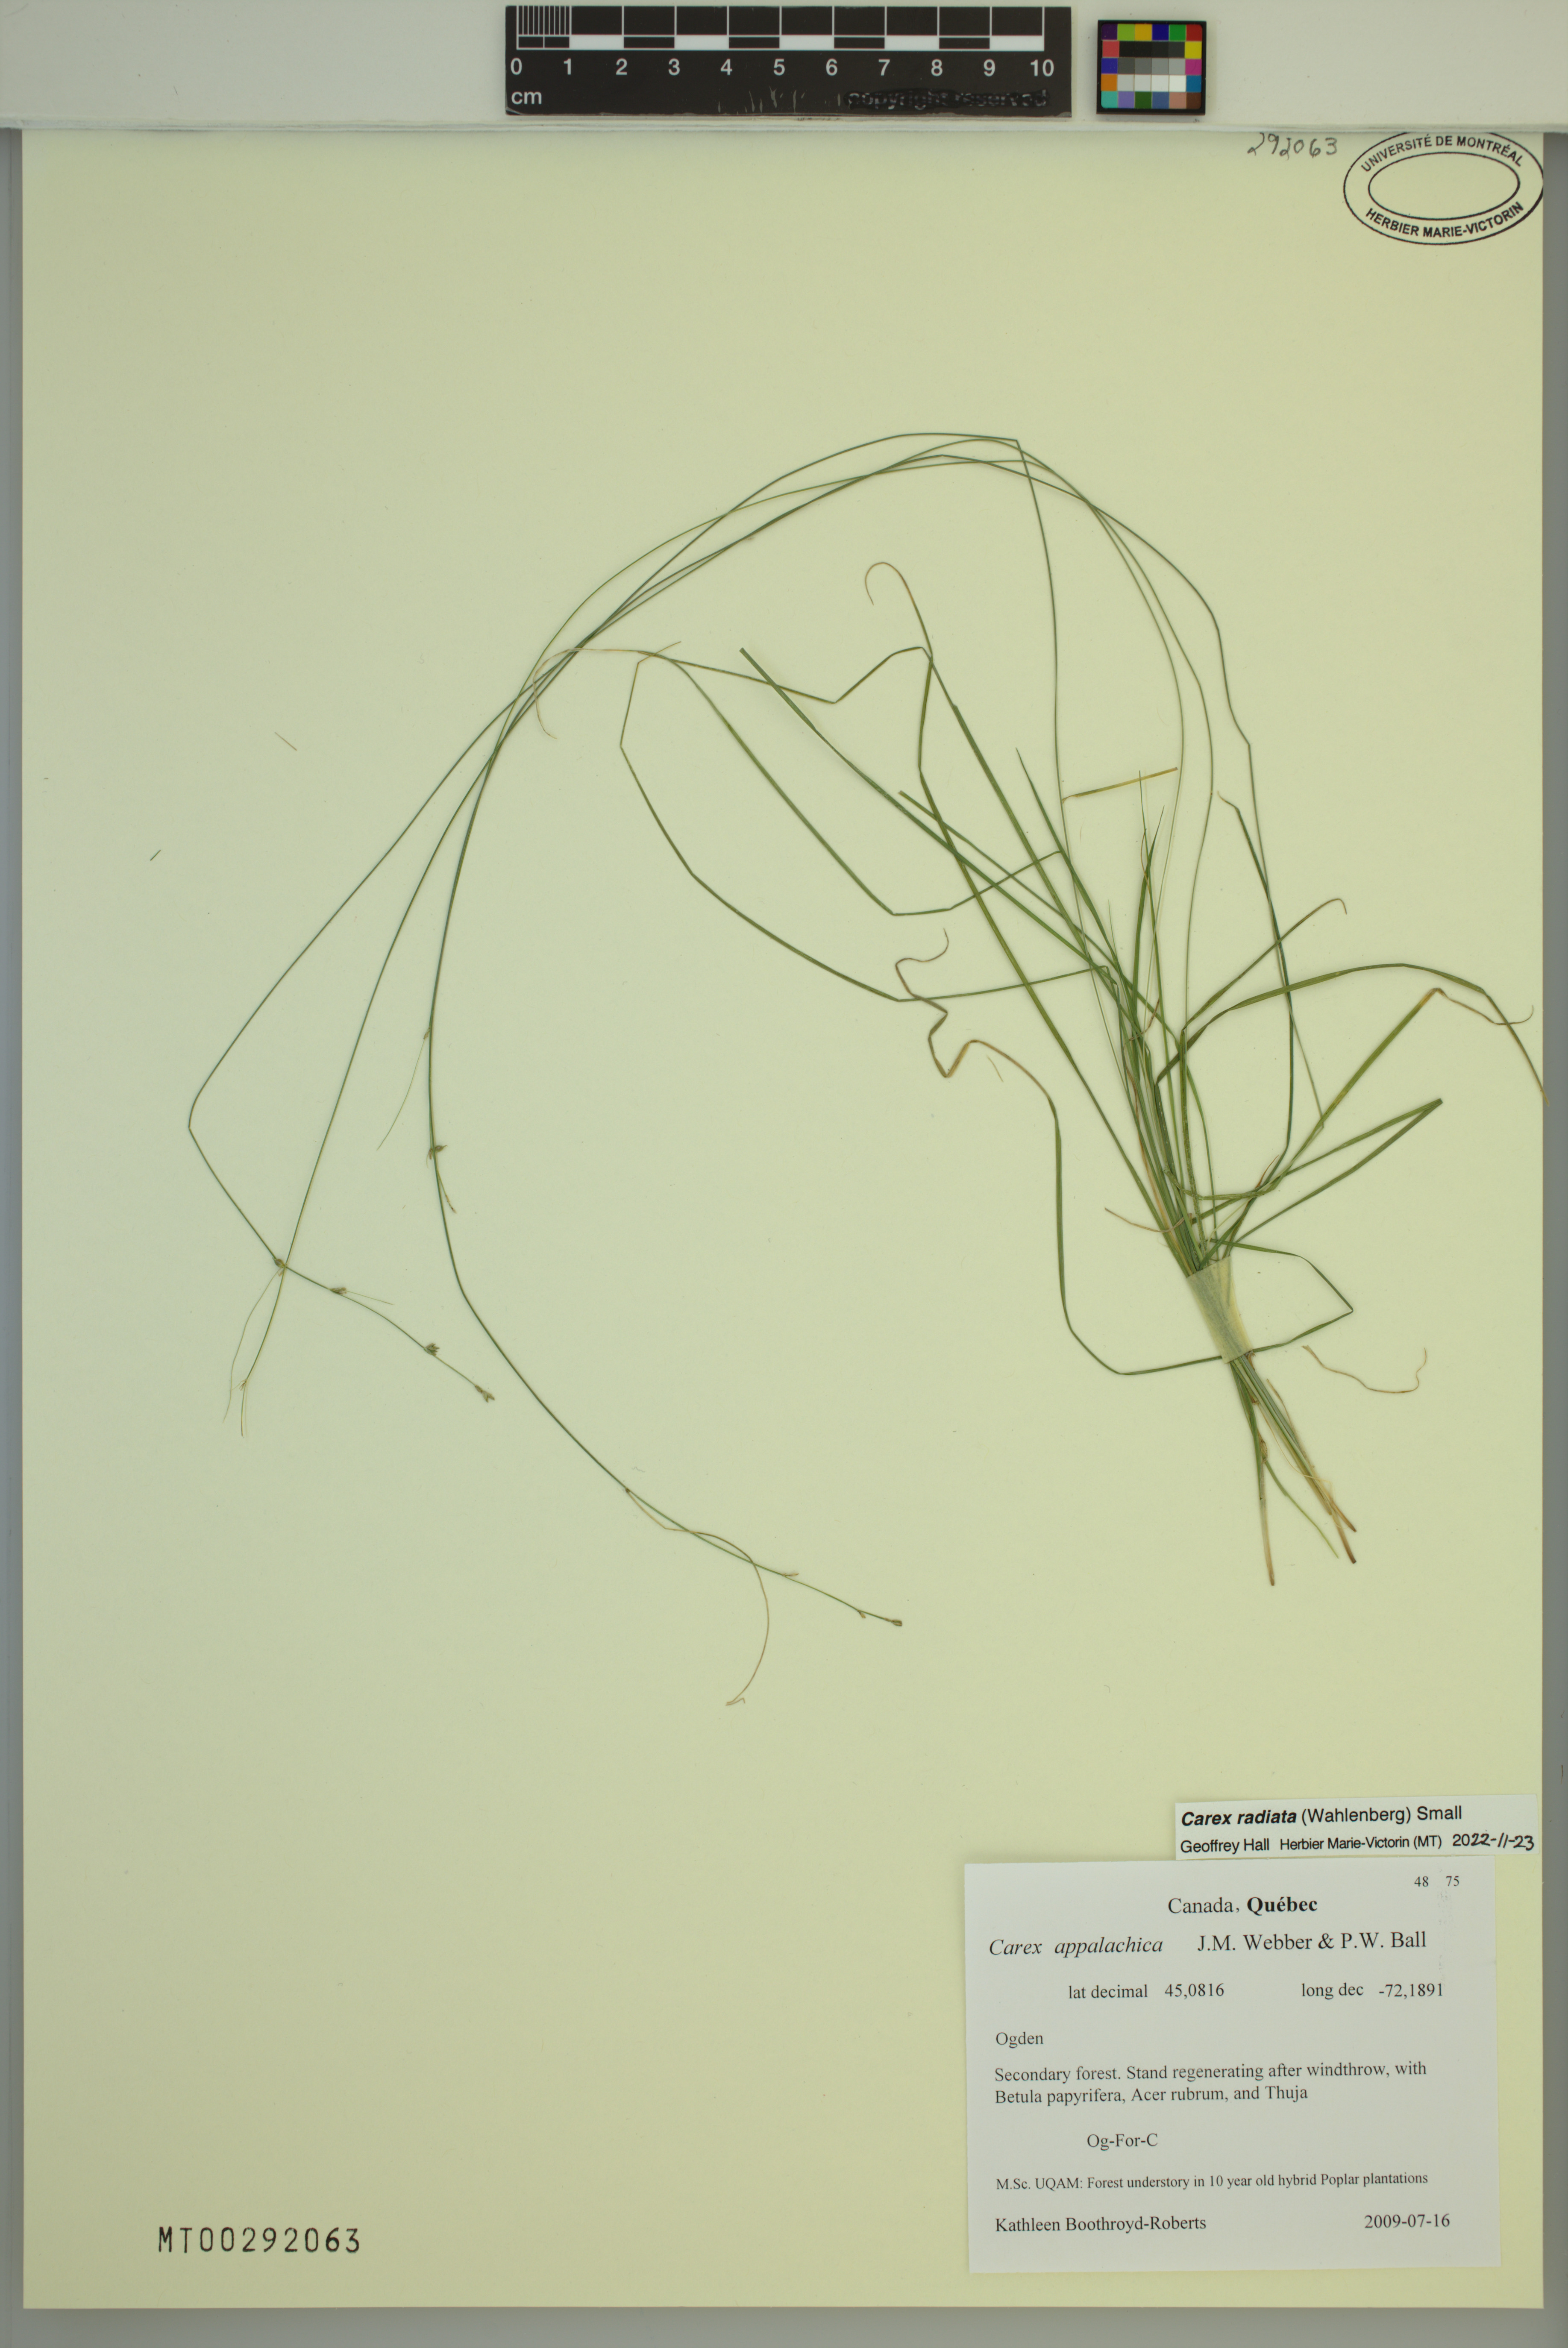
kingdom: Plantae
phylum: Tracheophyta
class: Liliopsida
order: Poales
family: Cyperaceae
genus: Carex
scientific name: Carex radiata
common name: Eastern star sedge
